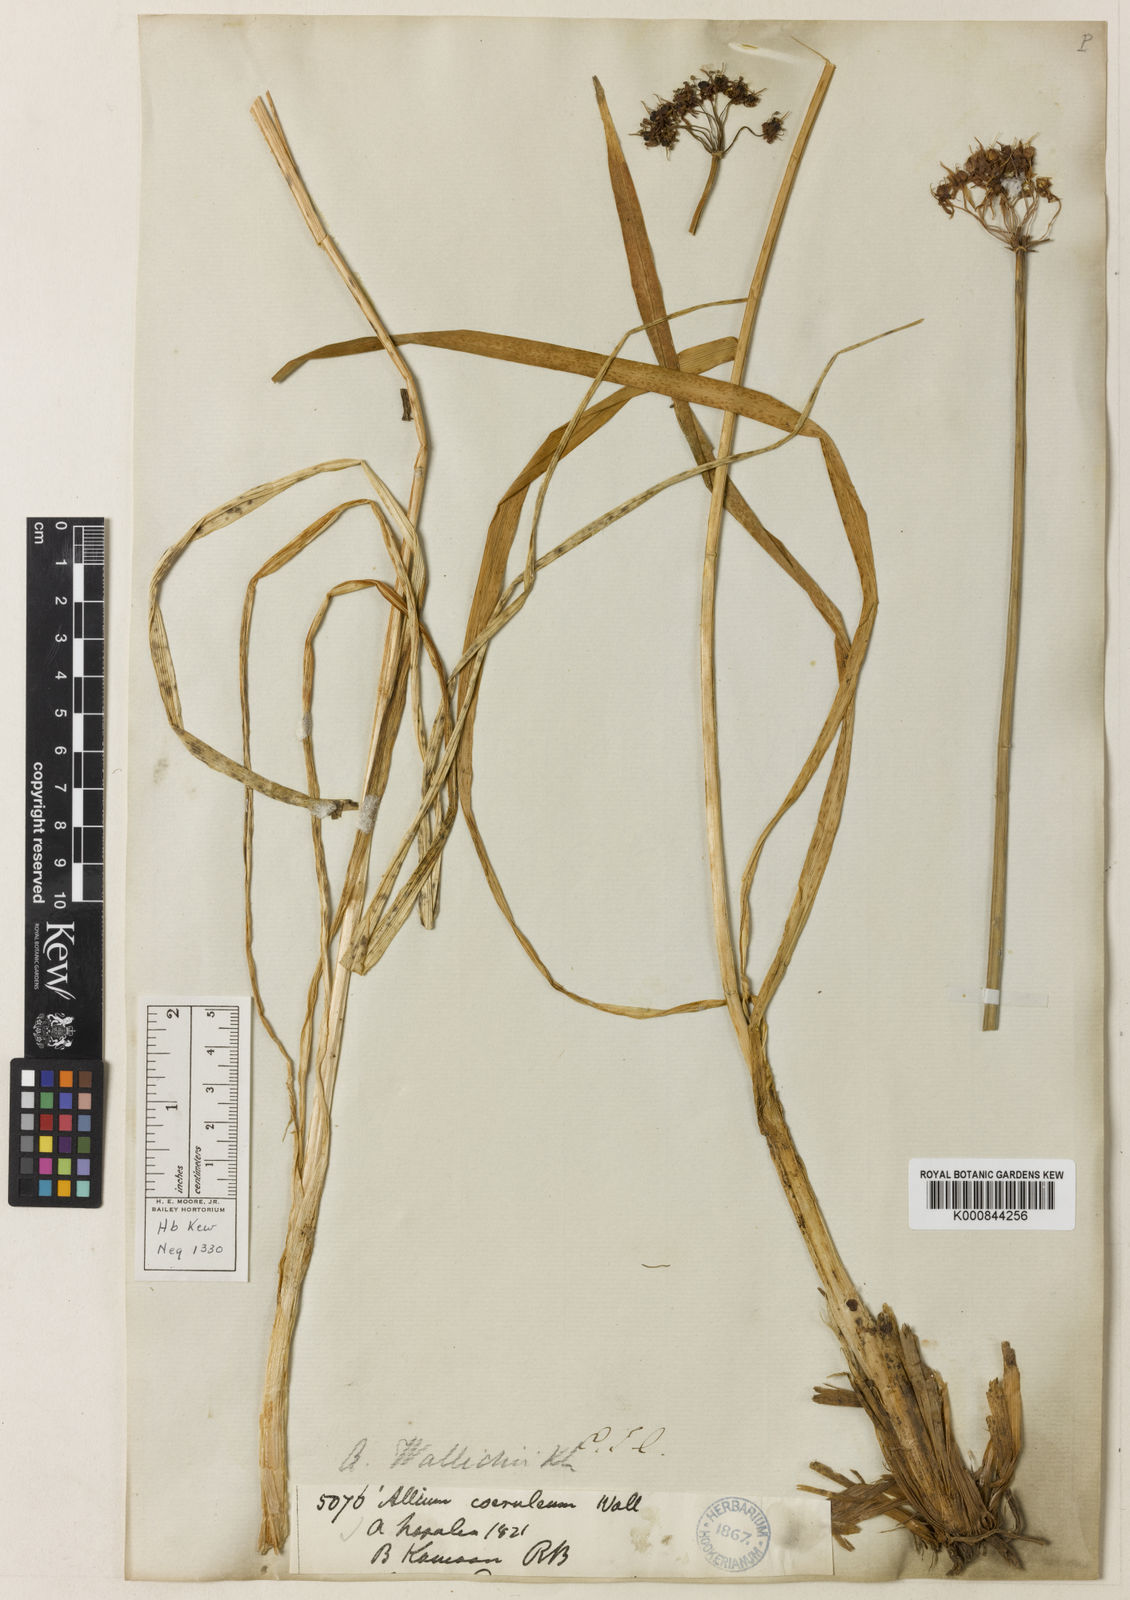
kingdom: Plantae
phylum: Tracheophyta
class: Liliopsida
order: Asparagales
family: Amaryllidaceae
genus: Allium
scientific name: Allium wallichii
